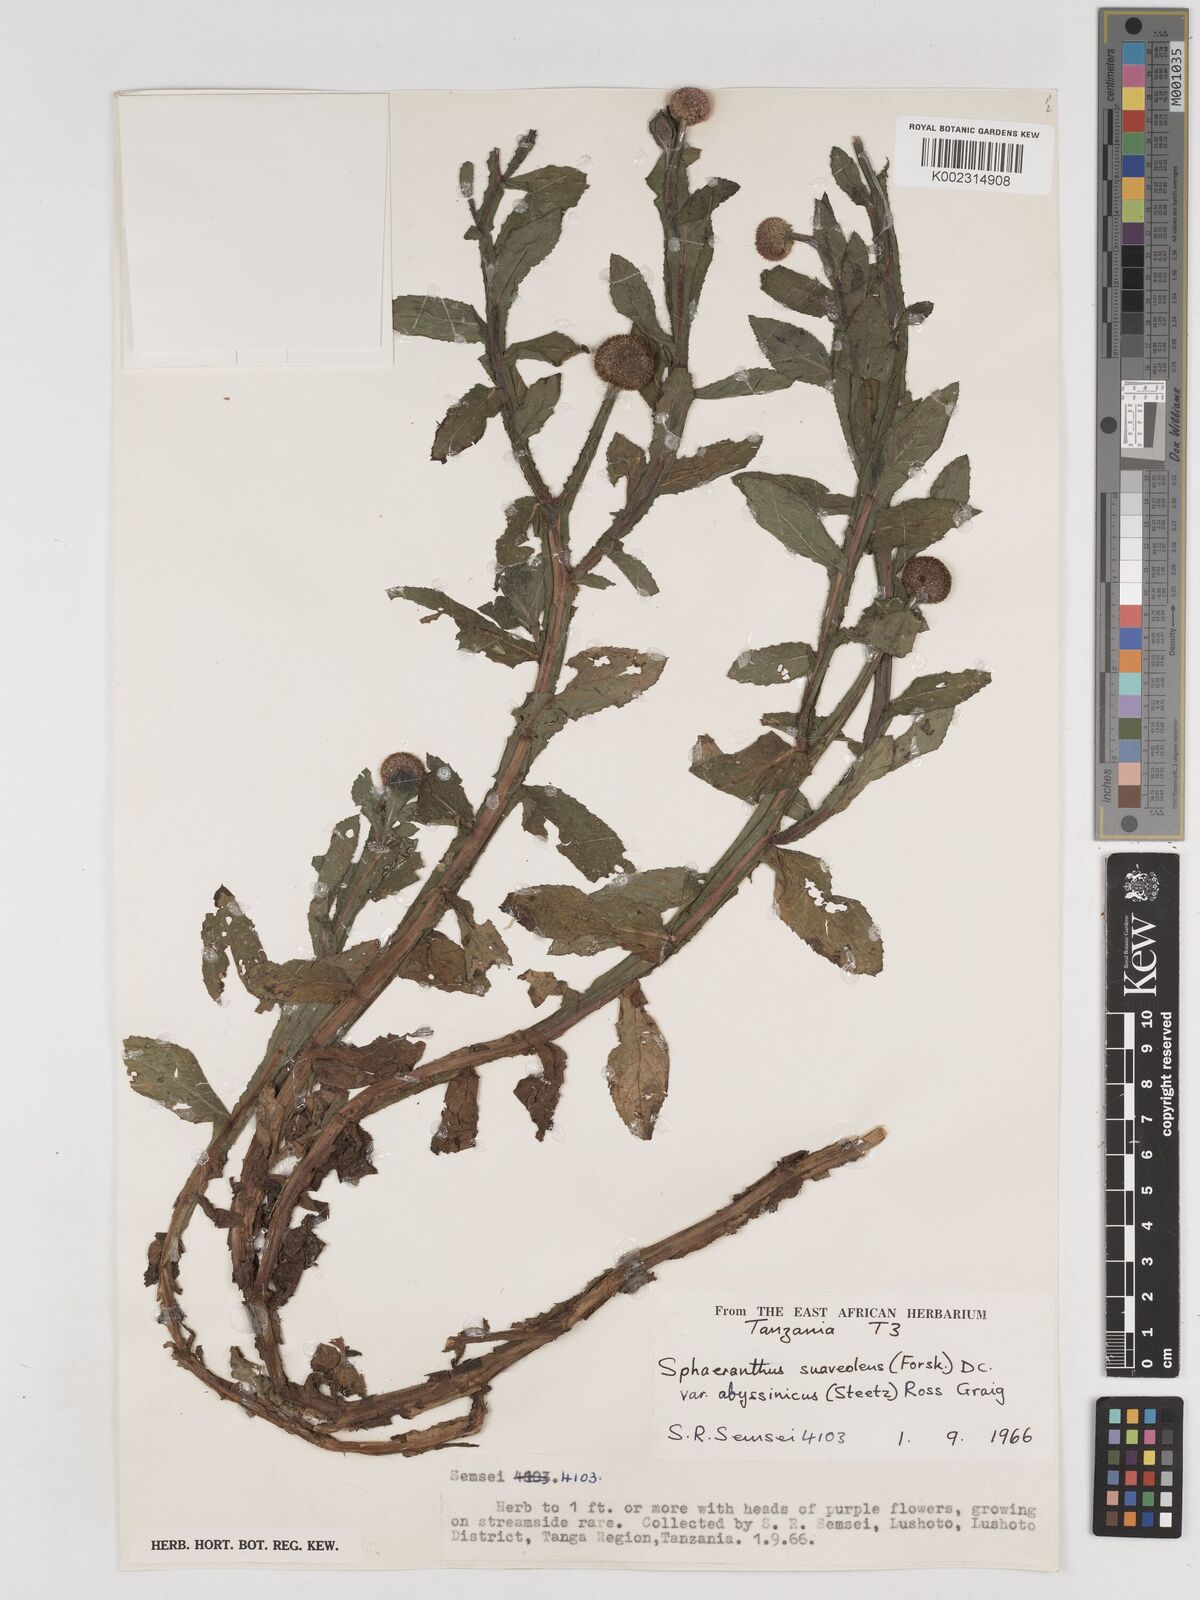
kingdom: Plantae
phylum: Tracheophyta
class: Magnoliopsida
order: Asterales
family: Asteraceae
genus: Sphaeranthus
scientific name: Sphaeranthus suaveolens
